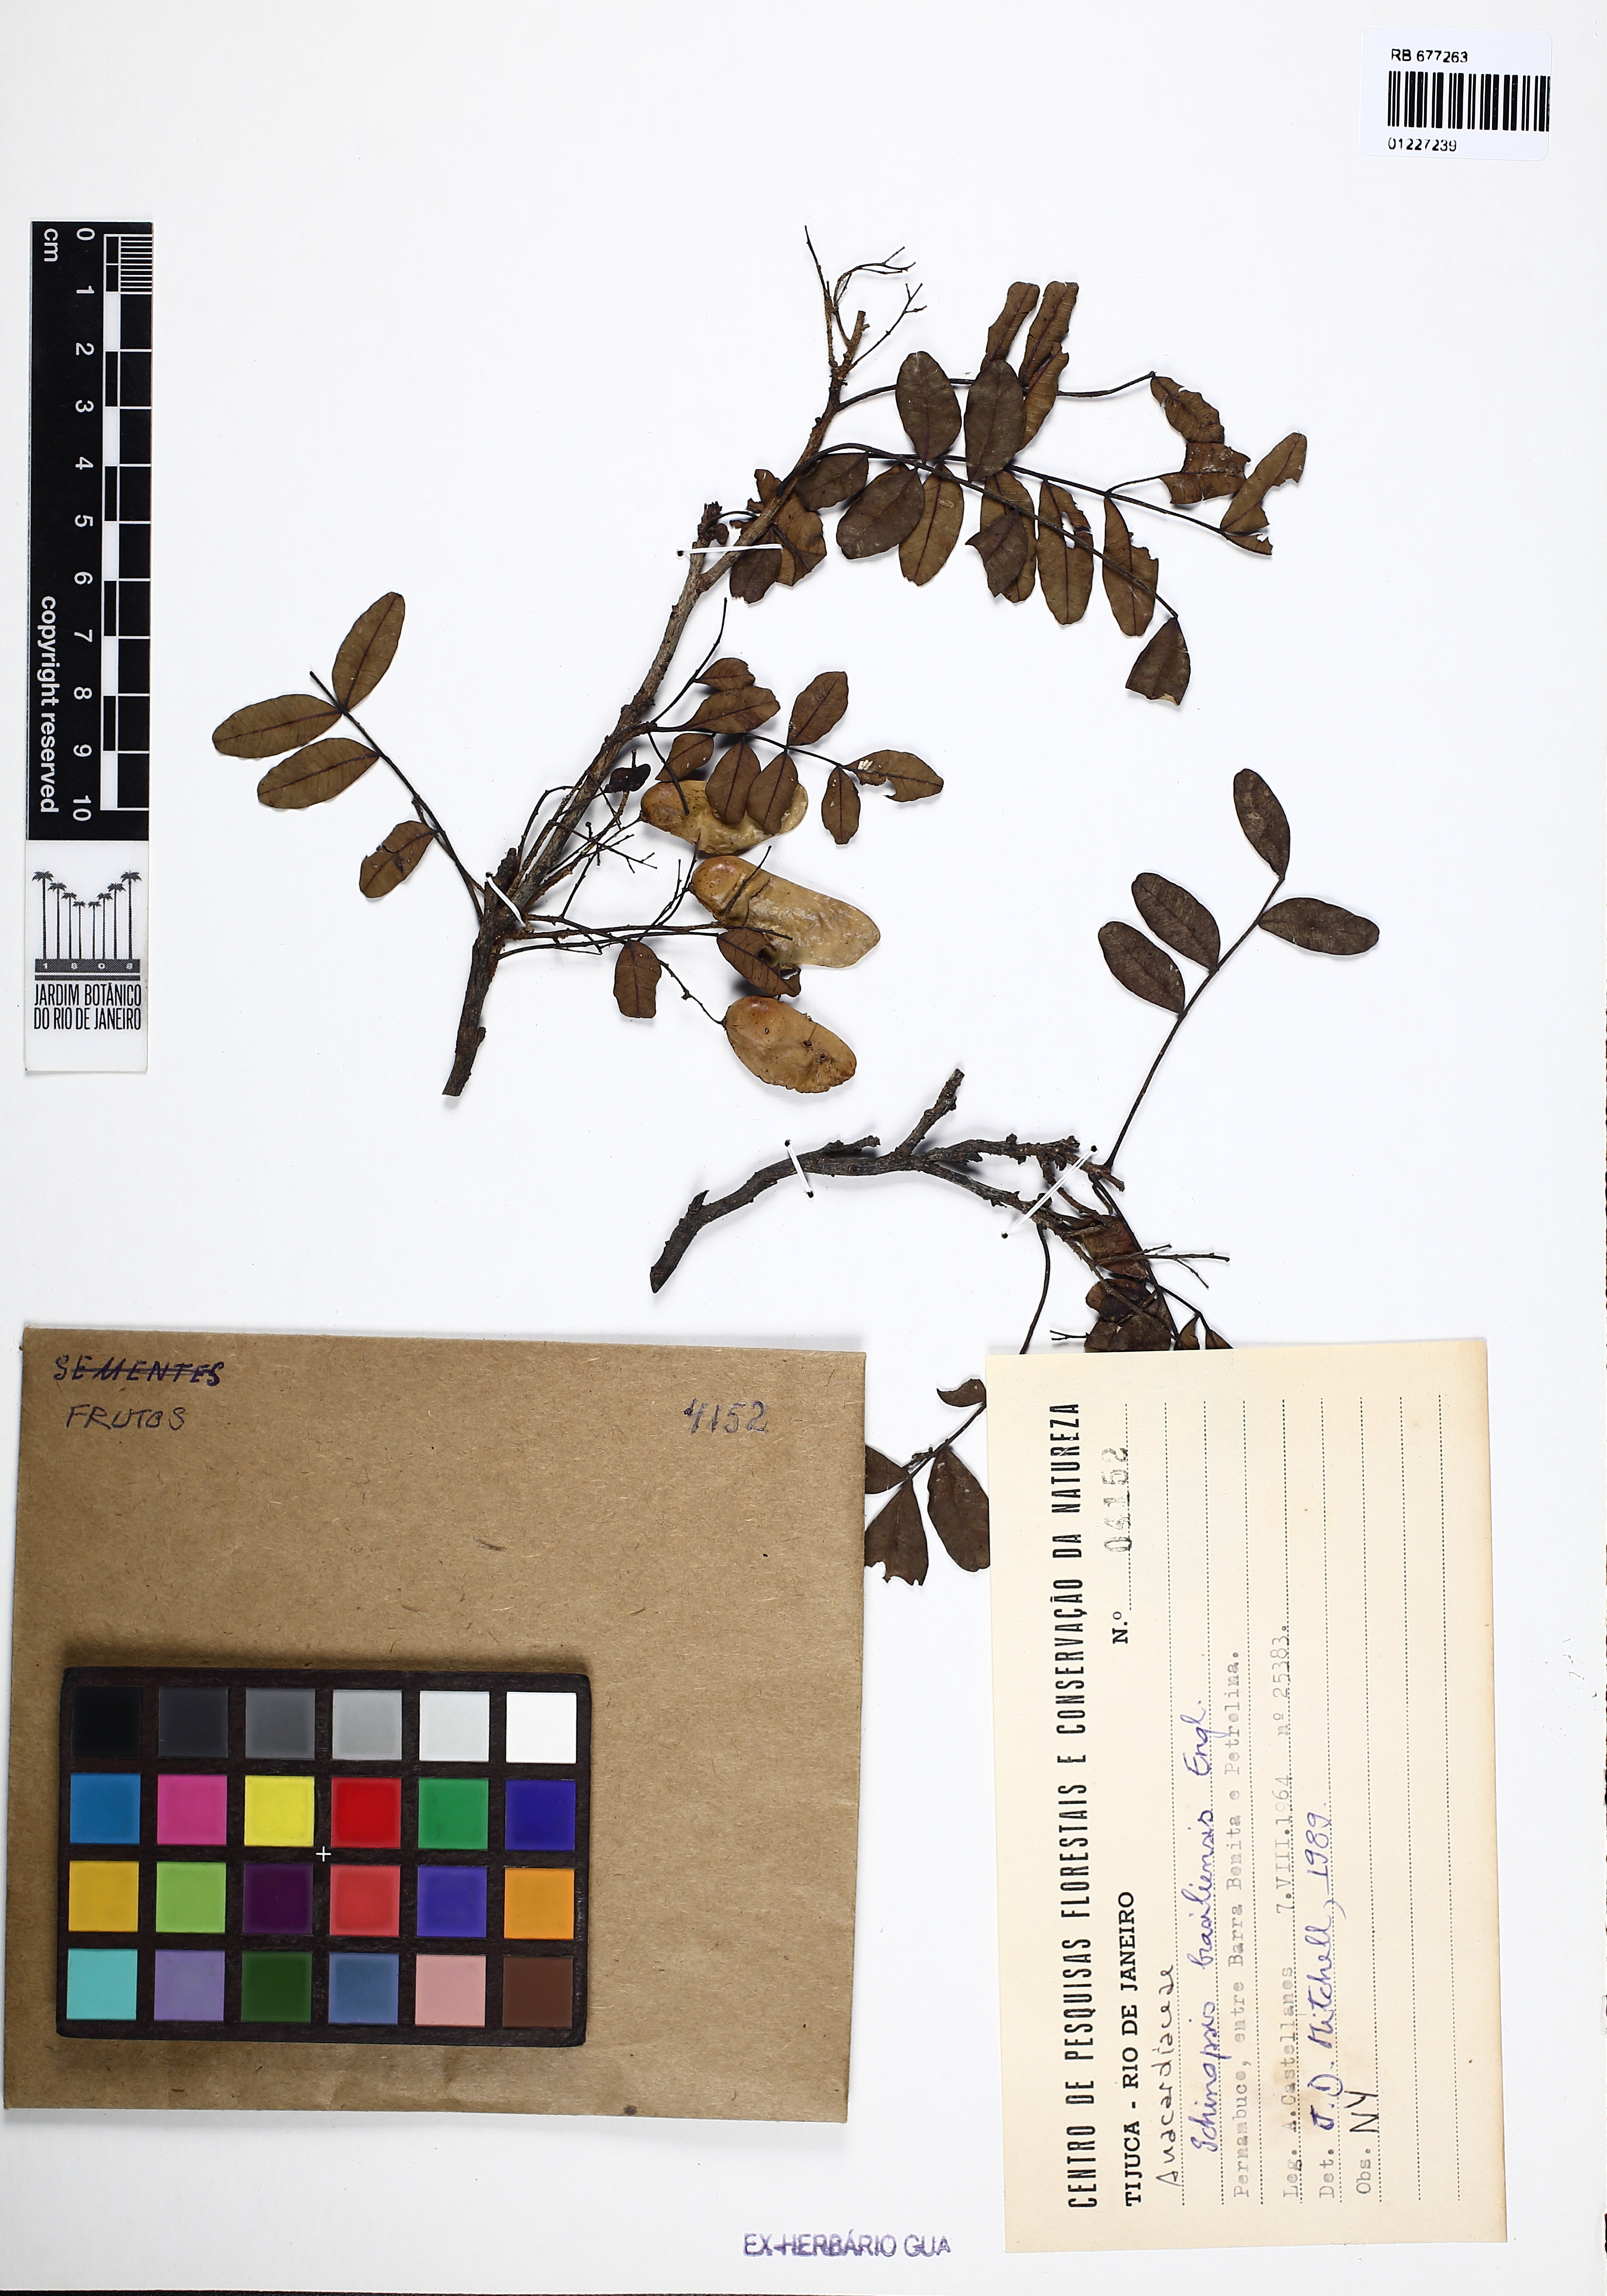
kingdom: Plantae
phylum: Tracheophyta
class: Magnoliopsida
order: Sapindales
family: Anacardiaceae
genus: Schinopsis
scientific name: Schinopsis brasiliensis
